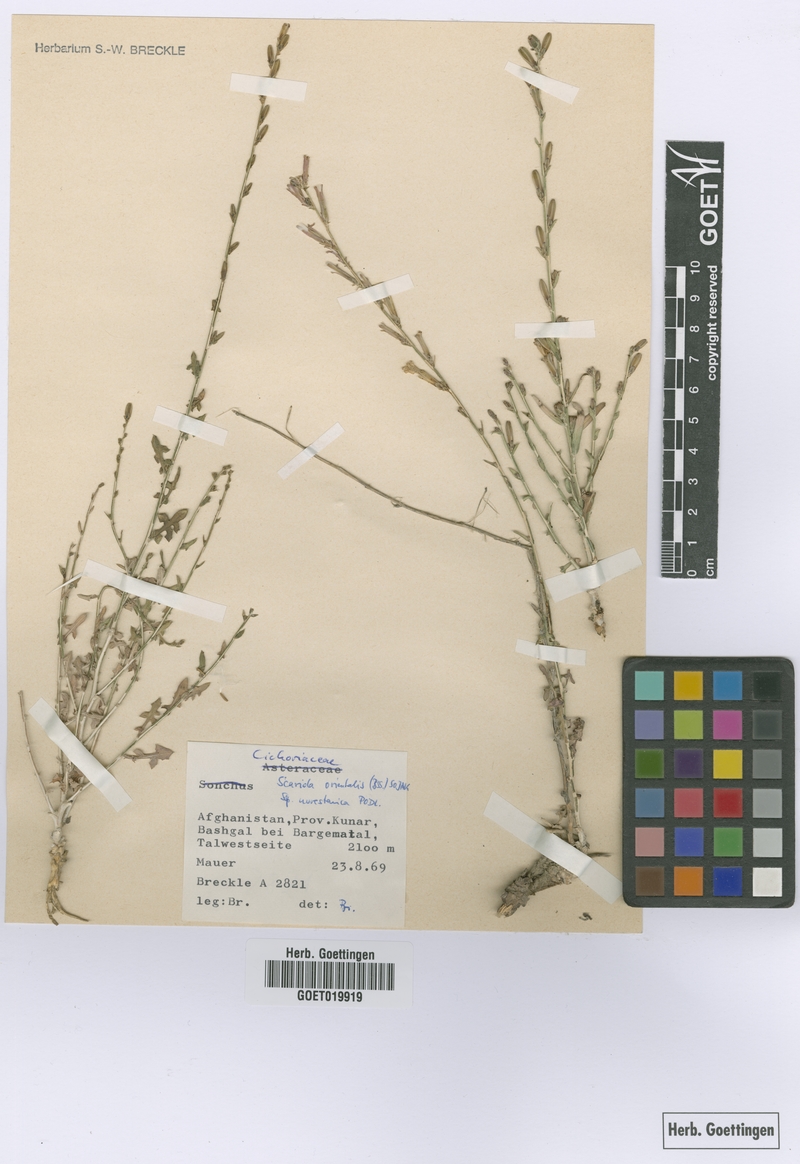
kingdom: Plantae
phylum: Tracheophyta
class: Magnoliopsida
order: Asterales
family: Asteraceae
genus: Lactuca
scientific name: Lactuca orientalis
